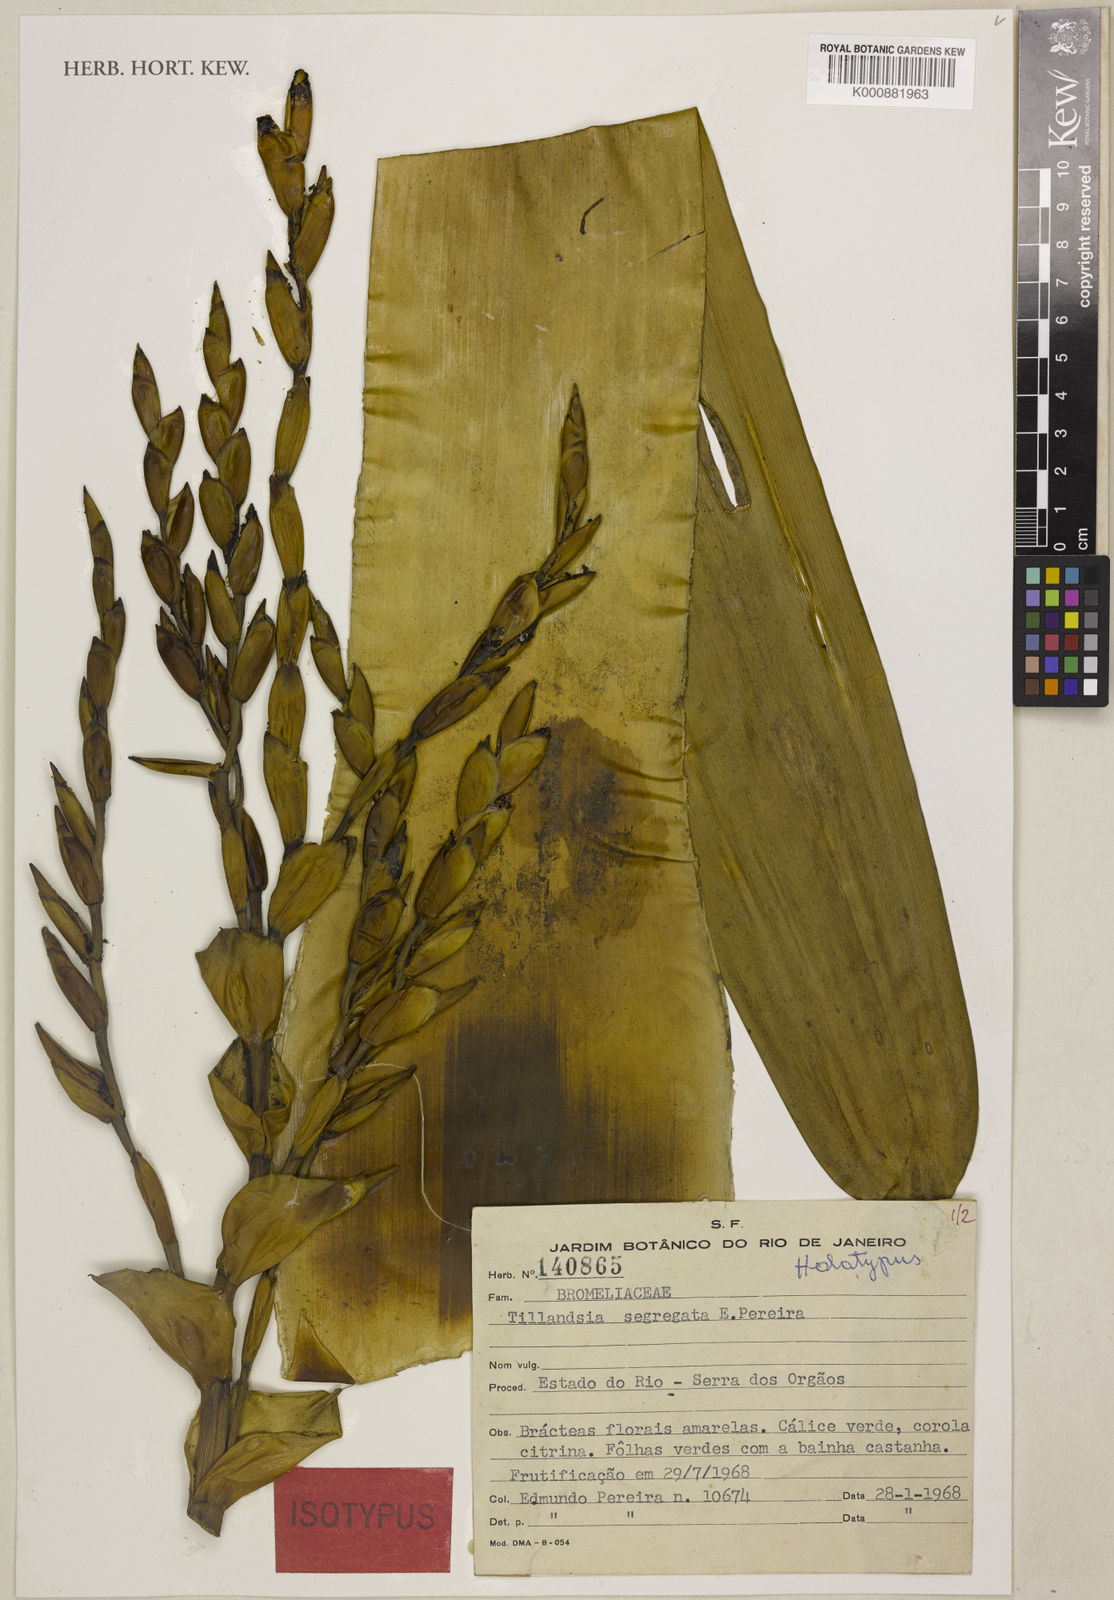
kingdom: Plantae
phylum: Tracheophyta
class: Liliopsida
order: Poales
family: Bromeliaceae
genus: Vriesea
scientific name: Vriesea morreni
